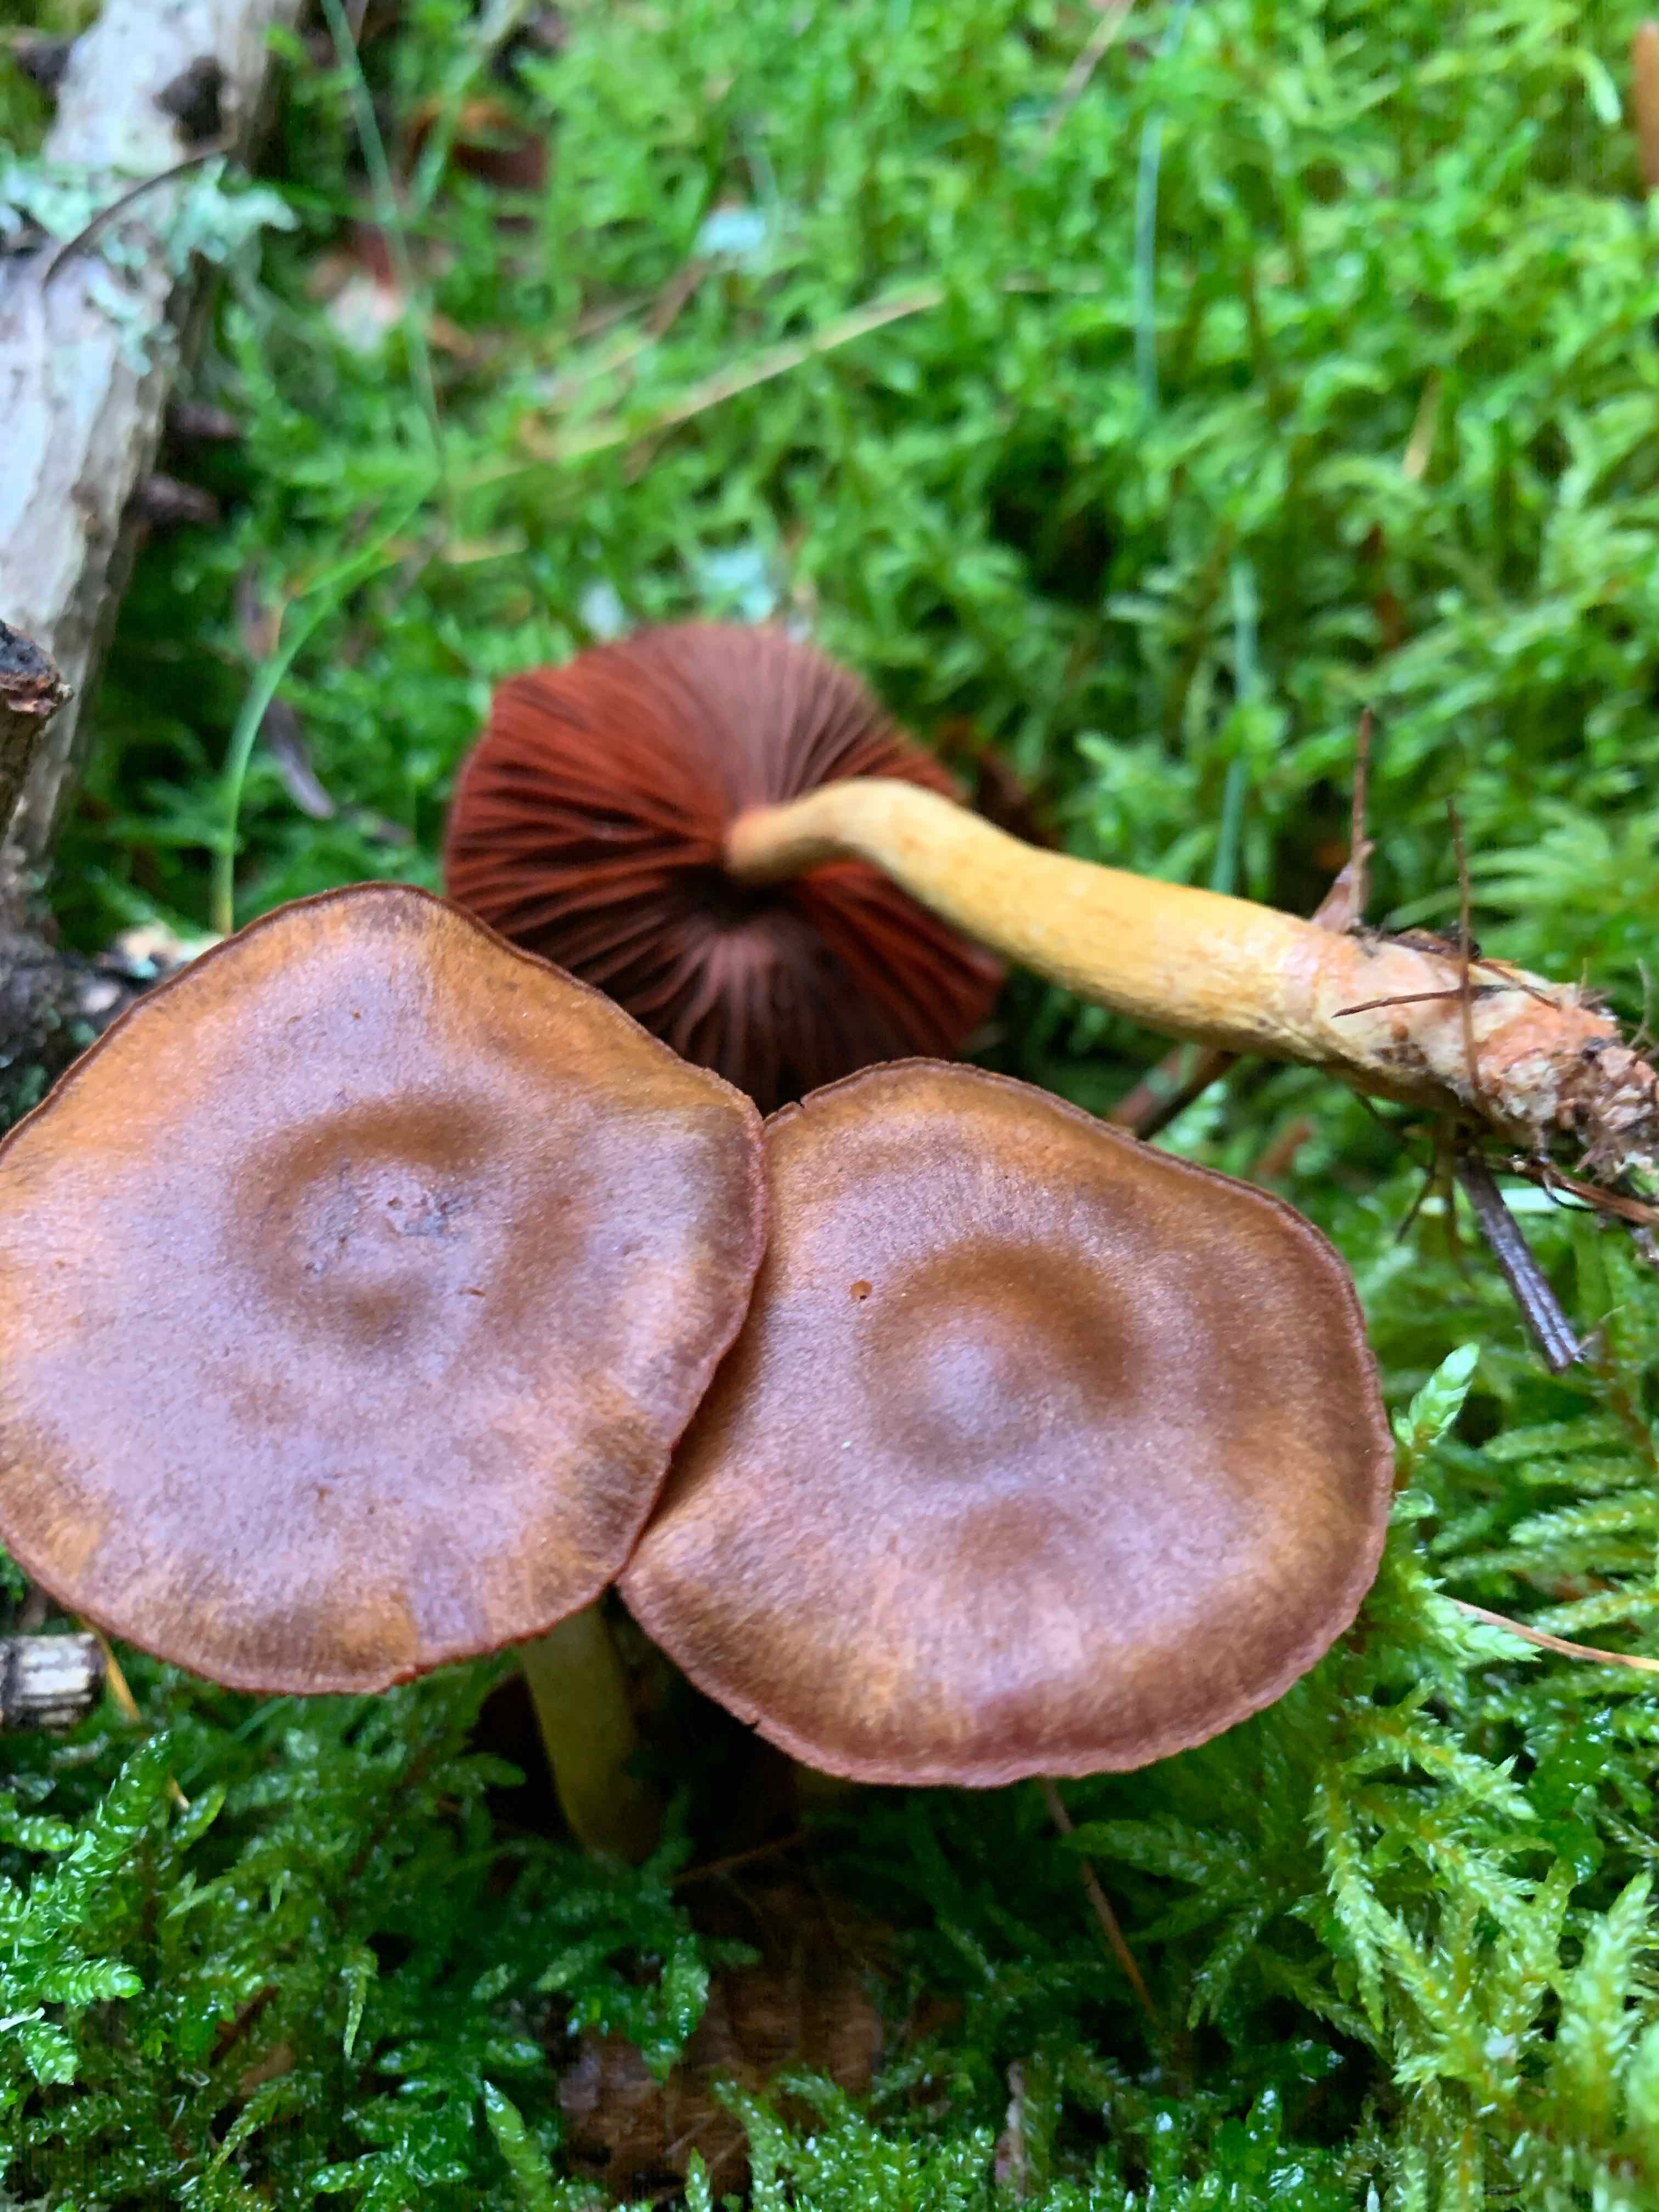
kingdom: Fungi
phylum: Basidiomycota
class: Agaricomycetes
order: Agaricales
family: Cortinariaceae
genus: Cortinarius
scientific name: Cortinarius
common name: cinnoberbladet slørhat
